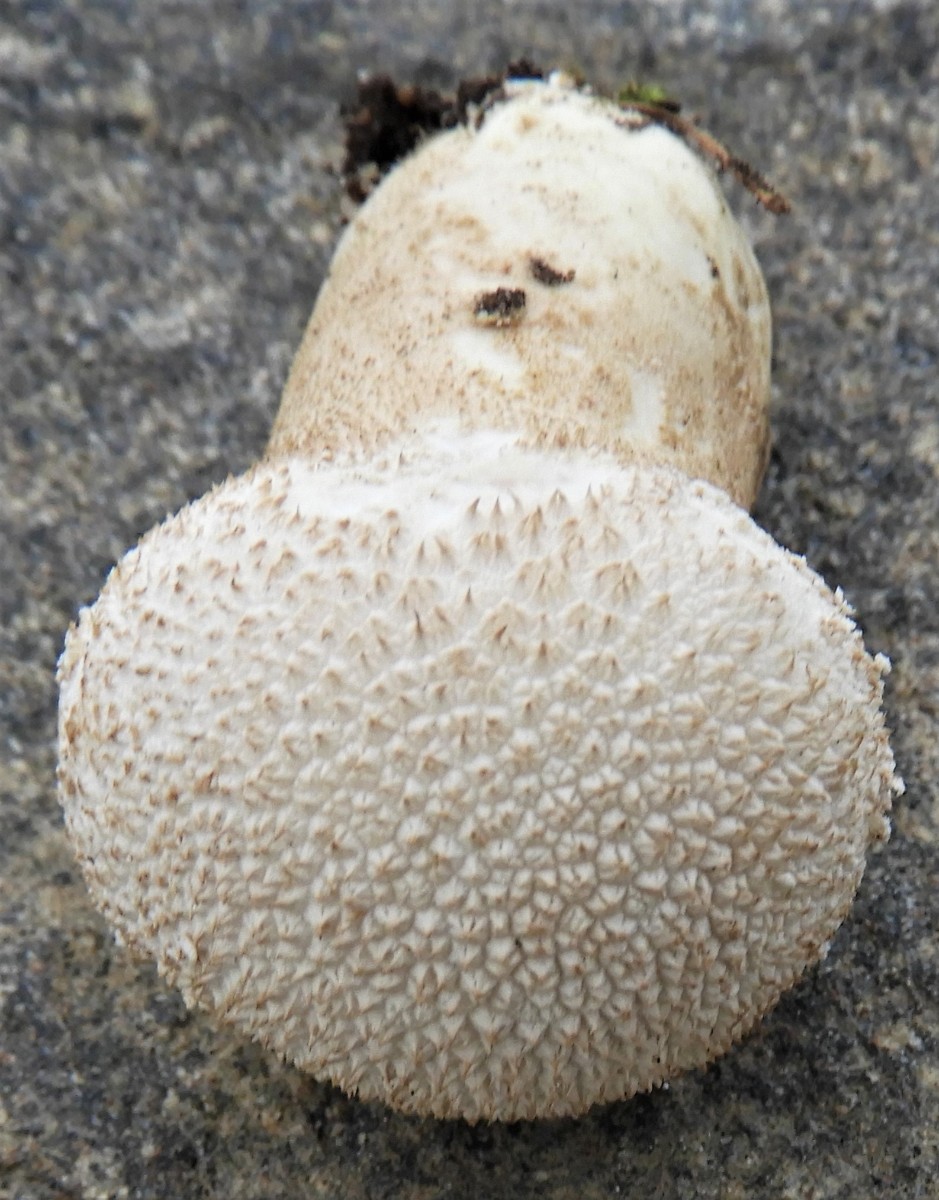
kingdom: Fungi
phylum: Basidiomycota
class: Agaricomycetes
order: Agaricales
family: Lycoperdaceae
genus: Lycoperdon
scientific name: Lycoperdon perlatum
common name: krystal-støvbold
